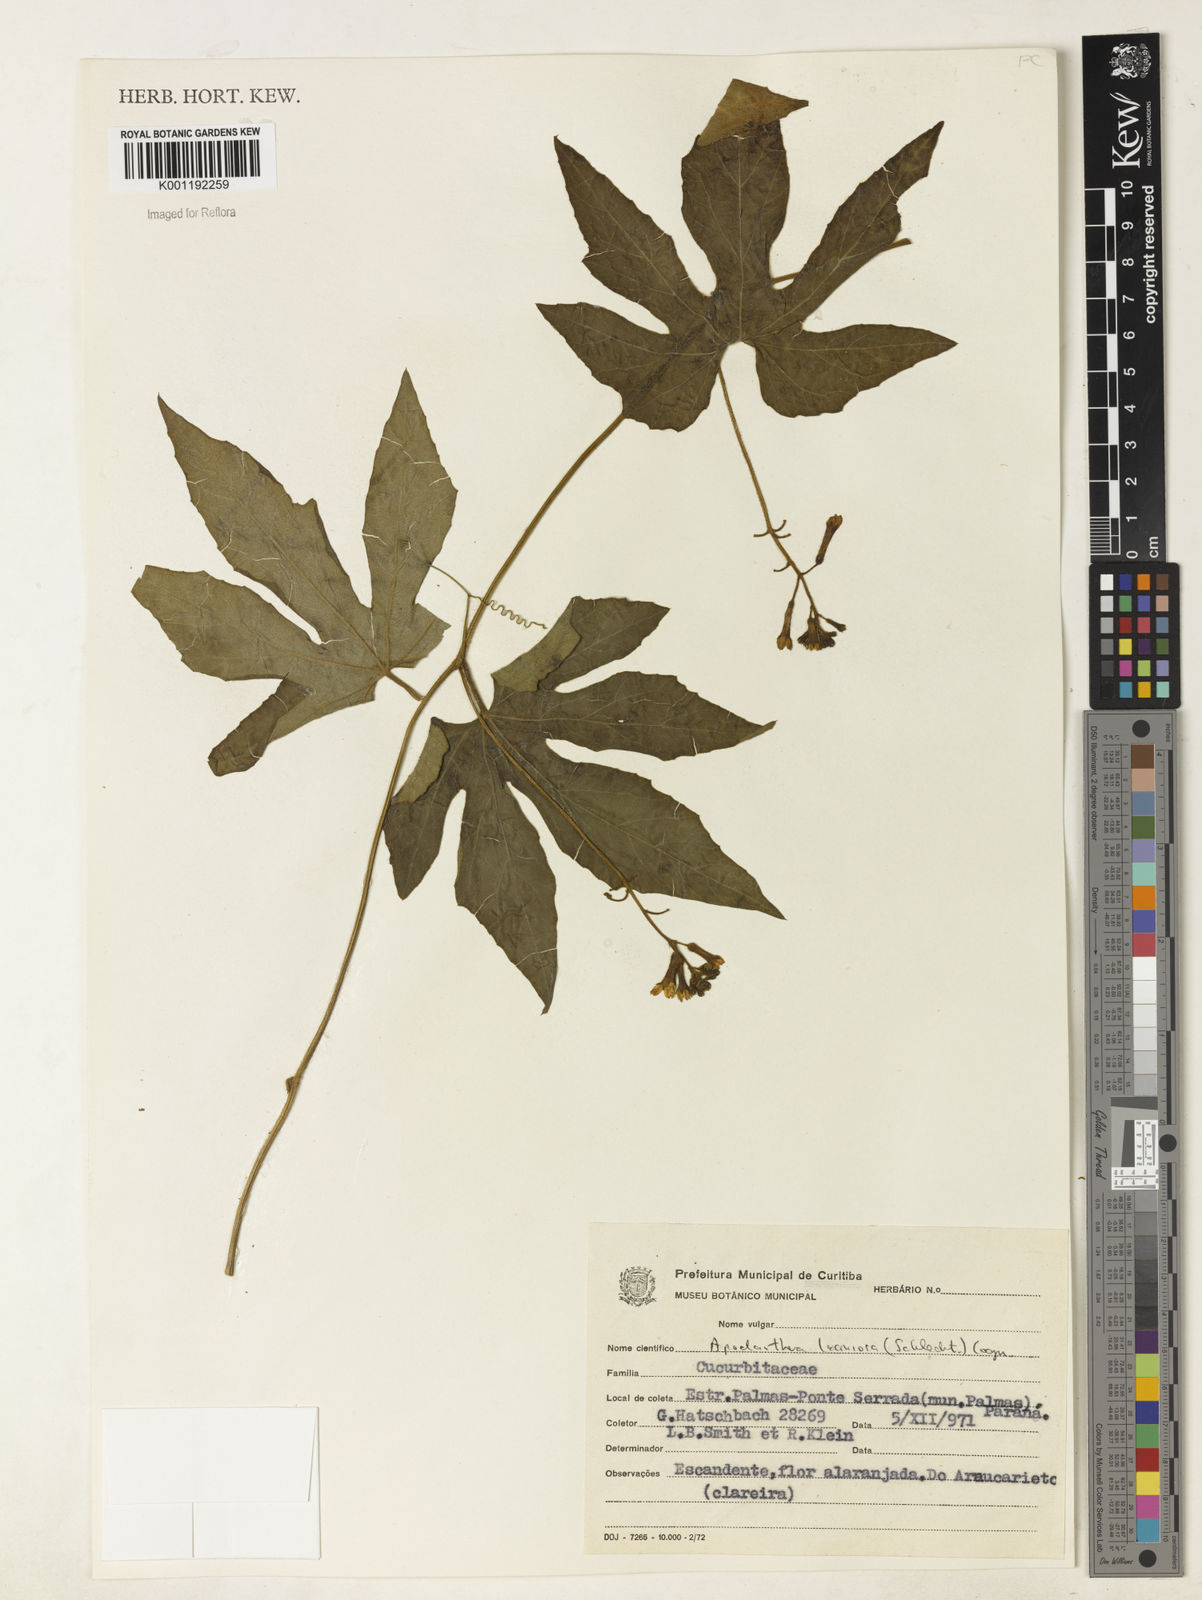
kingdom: Plantae
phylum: Tracheophyta
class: Magnoliopsida
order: Cucurbitales
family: Cucurbitaceae
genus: Apodanthera
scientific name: Apodanthera laciniosa
